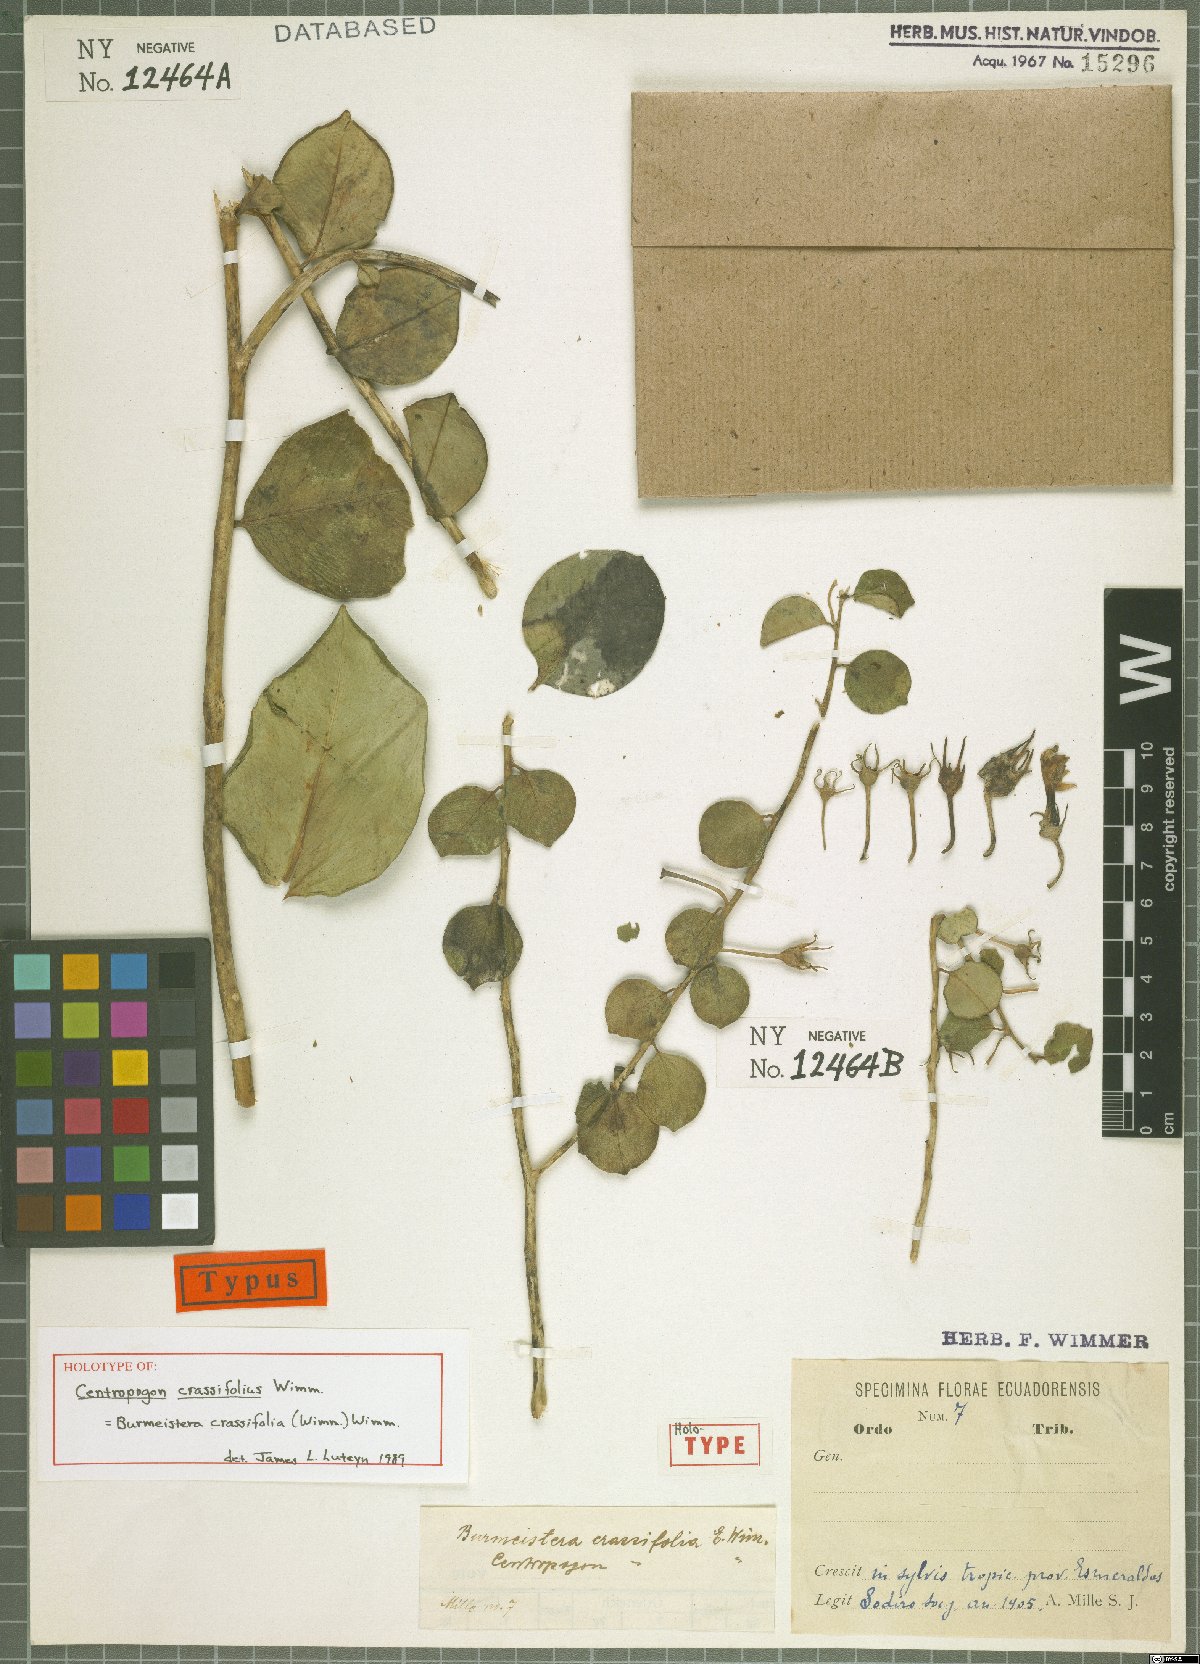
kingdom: Plantae
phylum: Tracheophyta
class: Magnoliopsida
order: Asterales
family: Campanulaceae
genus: Burmeistera
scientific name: Burmeistera crassifolia
